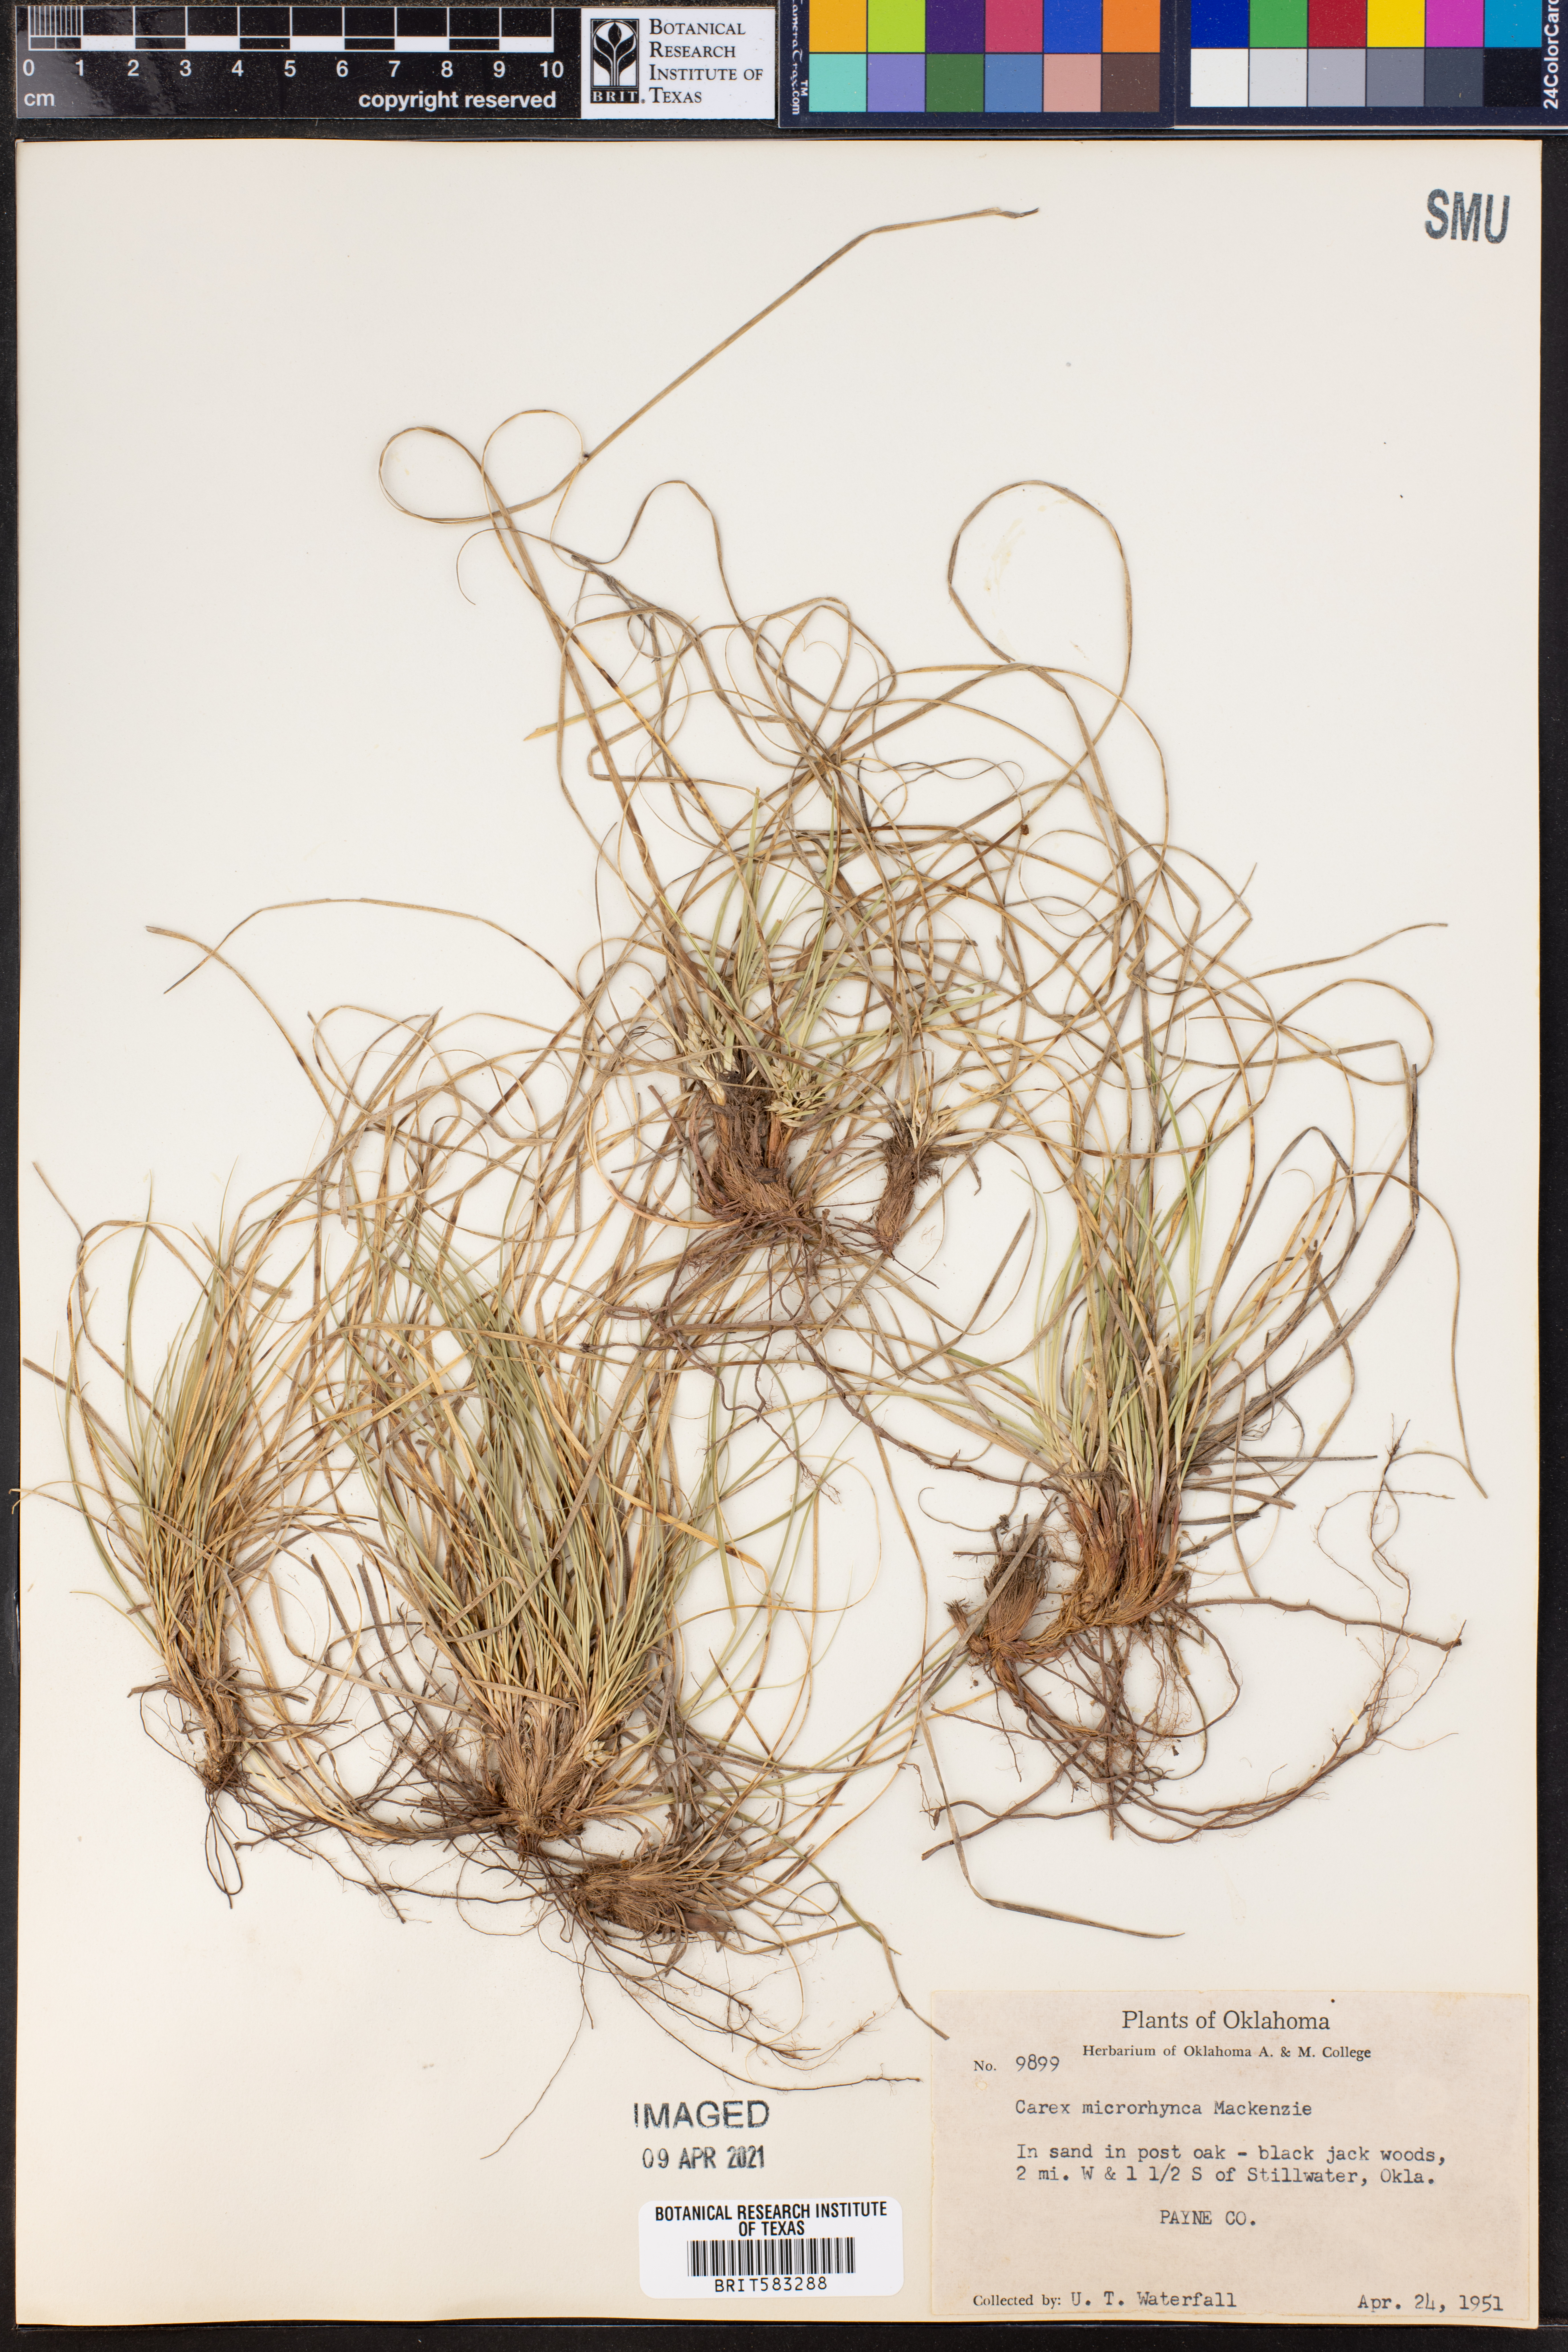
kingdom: Plantae
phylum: Tracheophyta
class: Liliopsida
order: Poales
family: Cyperaceae
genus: Carex
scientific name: Carex microrhyncha
